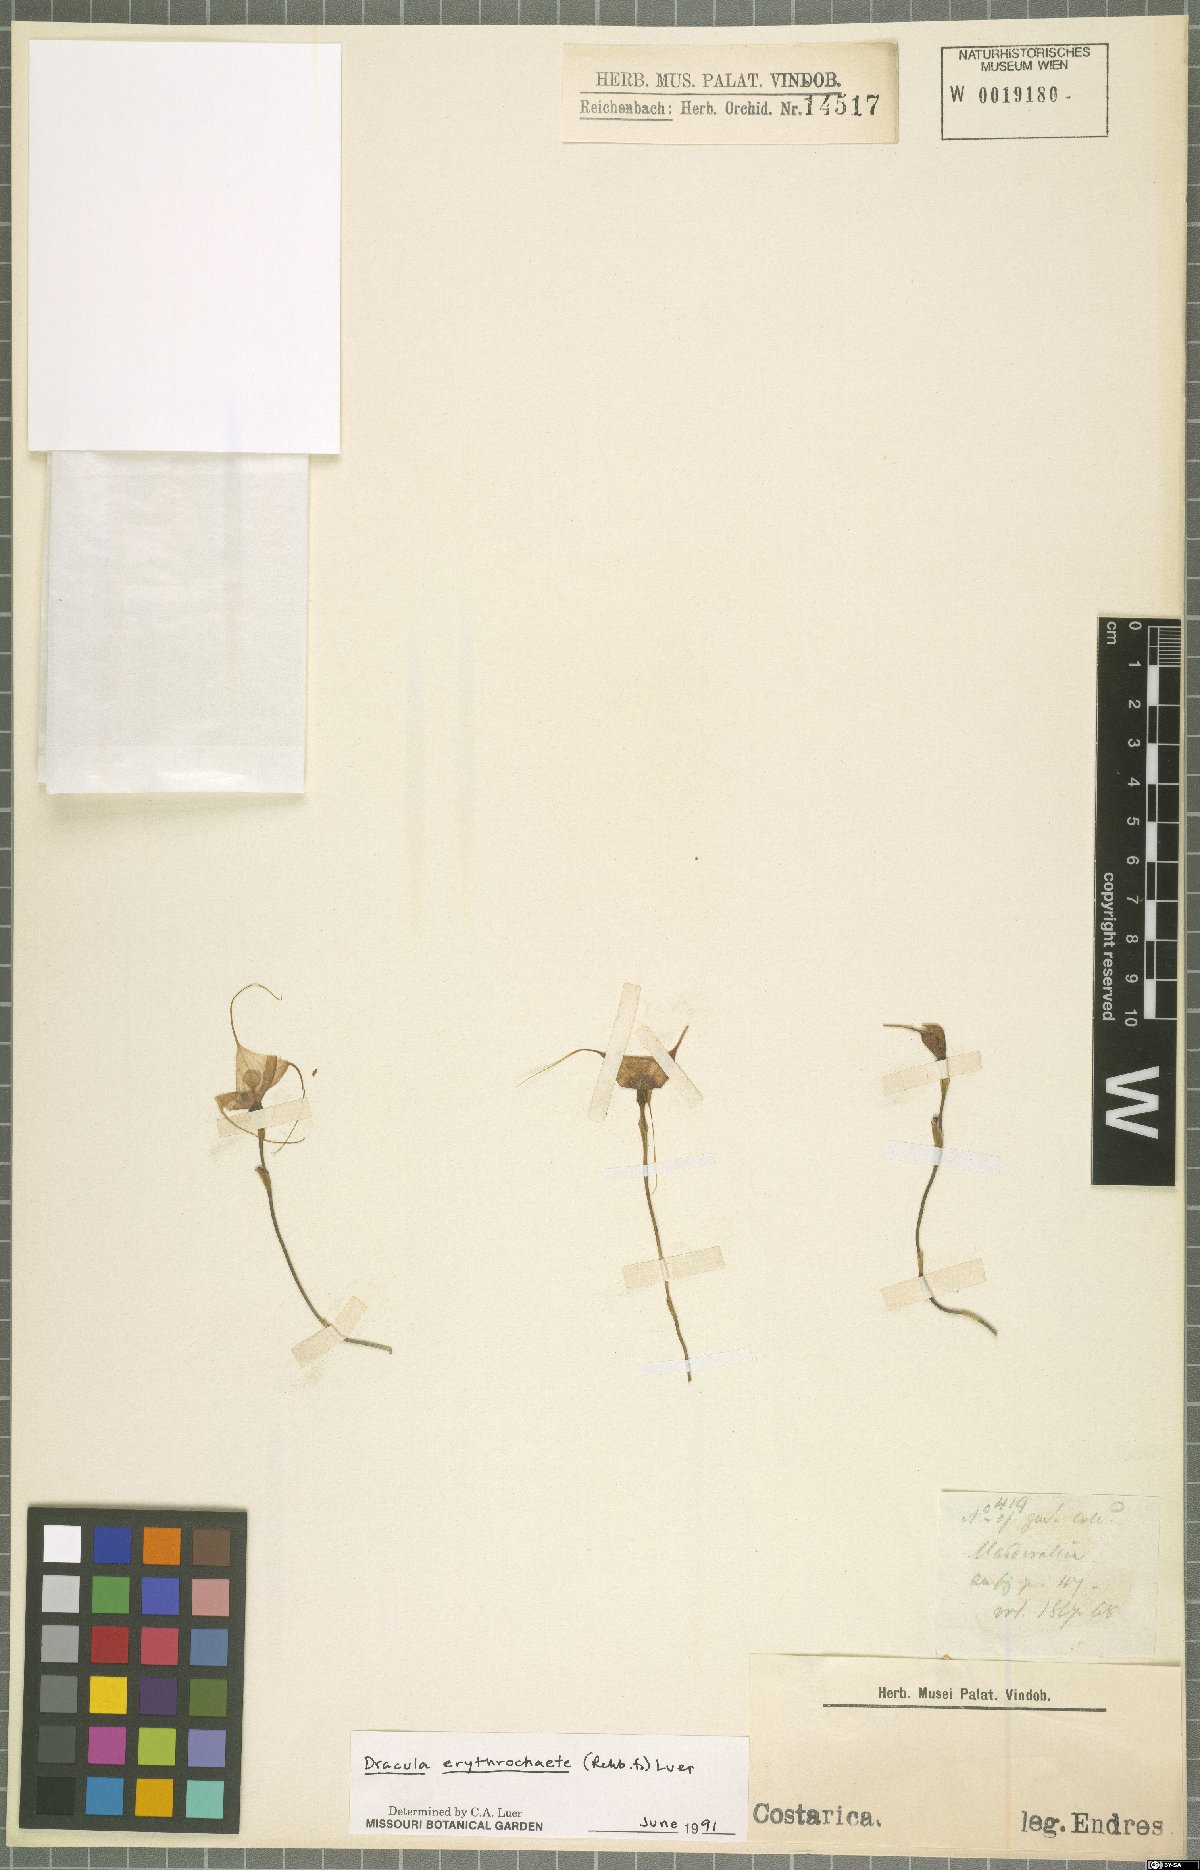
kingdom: Plantae
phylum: Tracheophyta
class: Liliopsida
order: Asparagales
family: Orchidaceae
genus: Dracula
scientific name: Dracula erythrochaete
